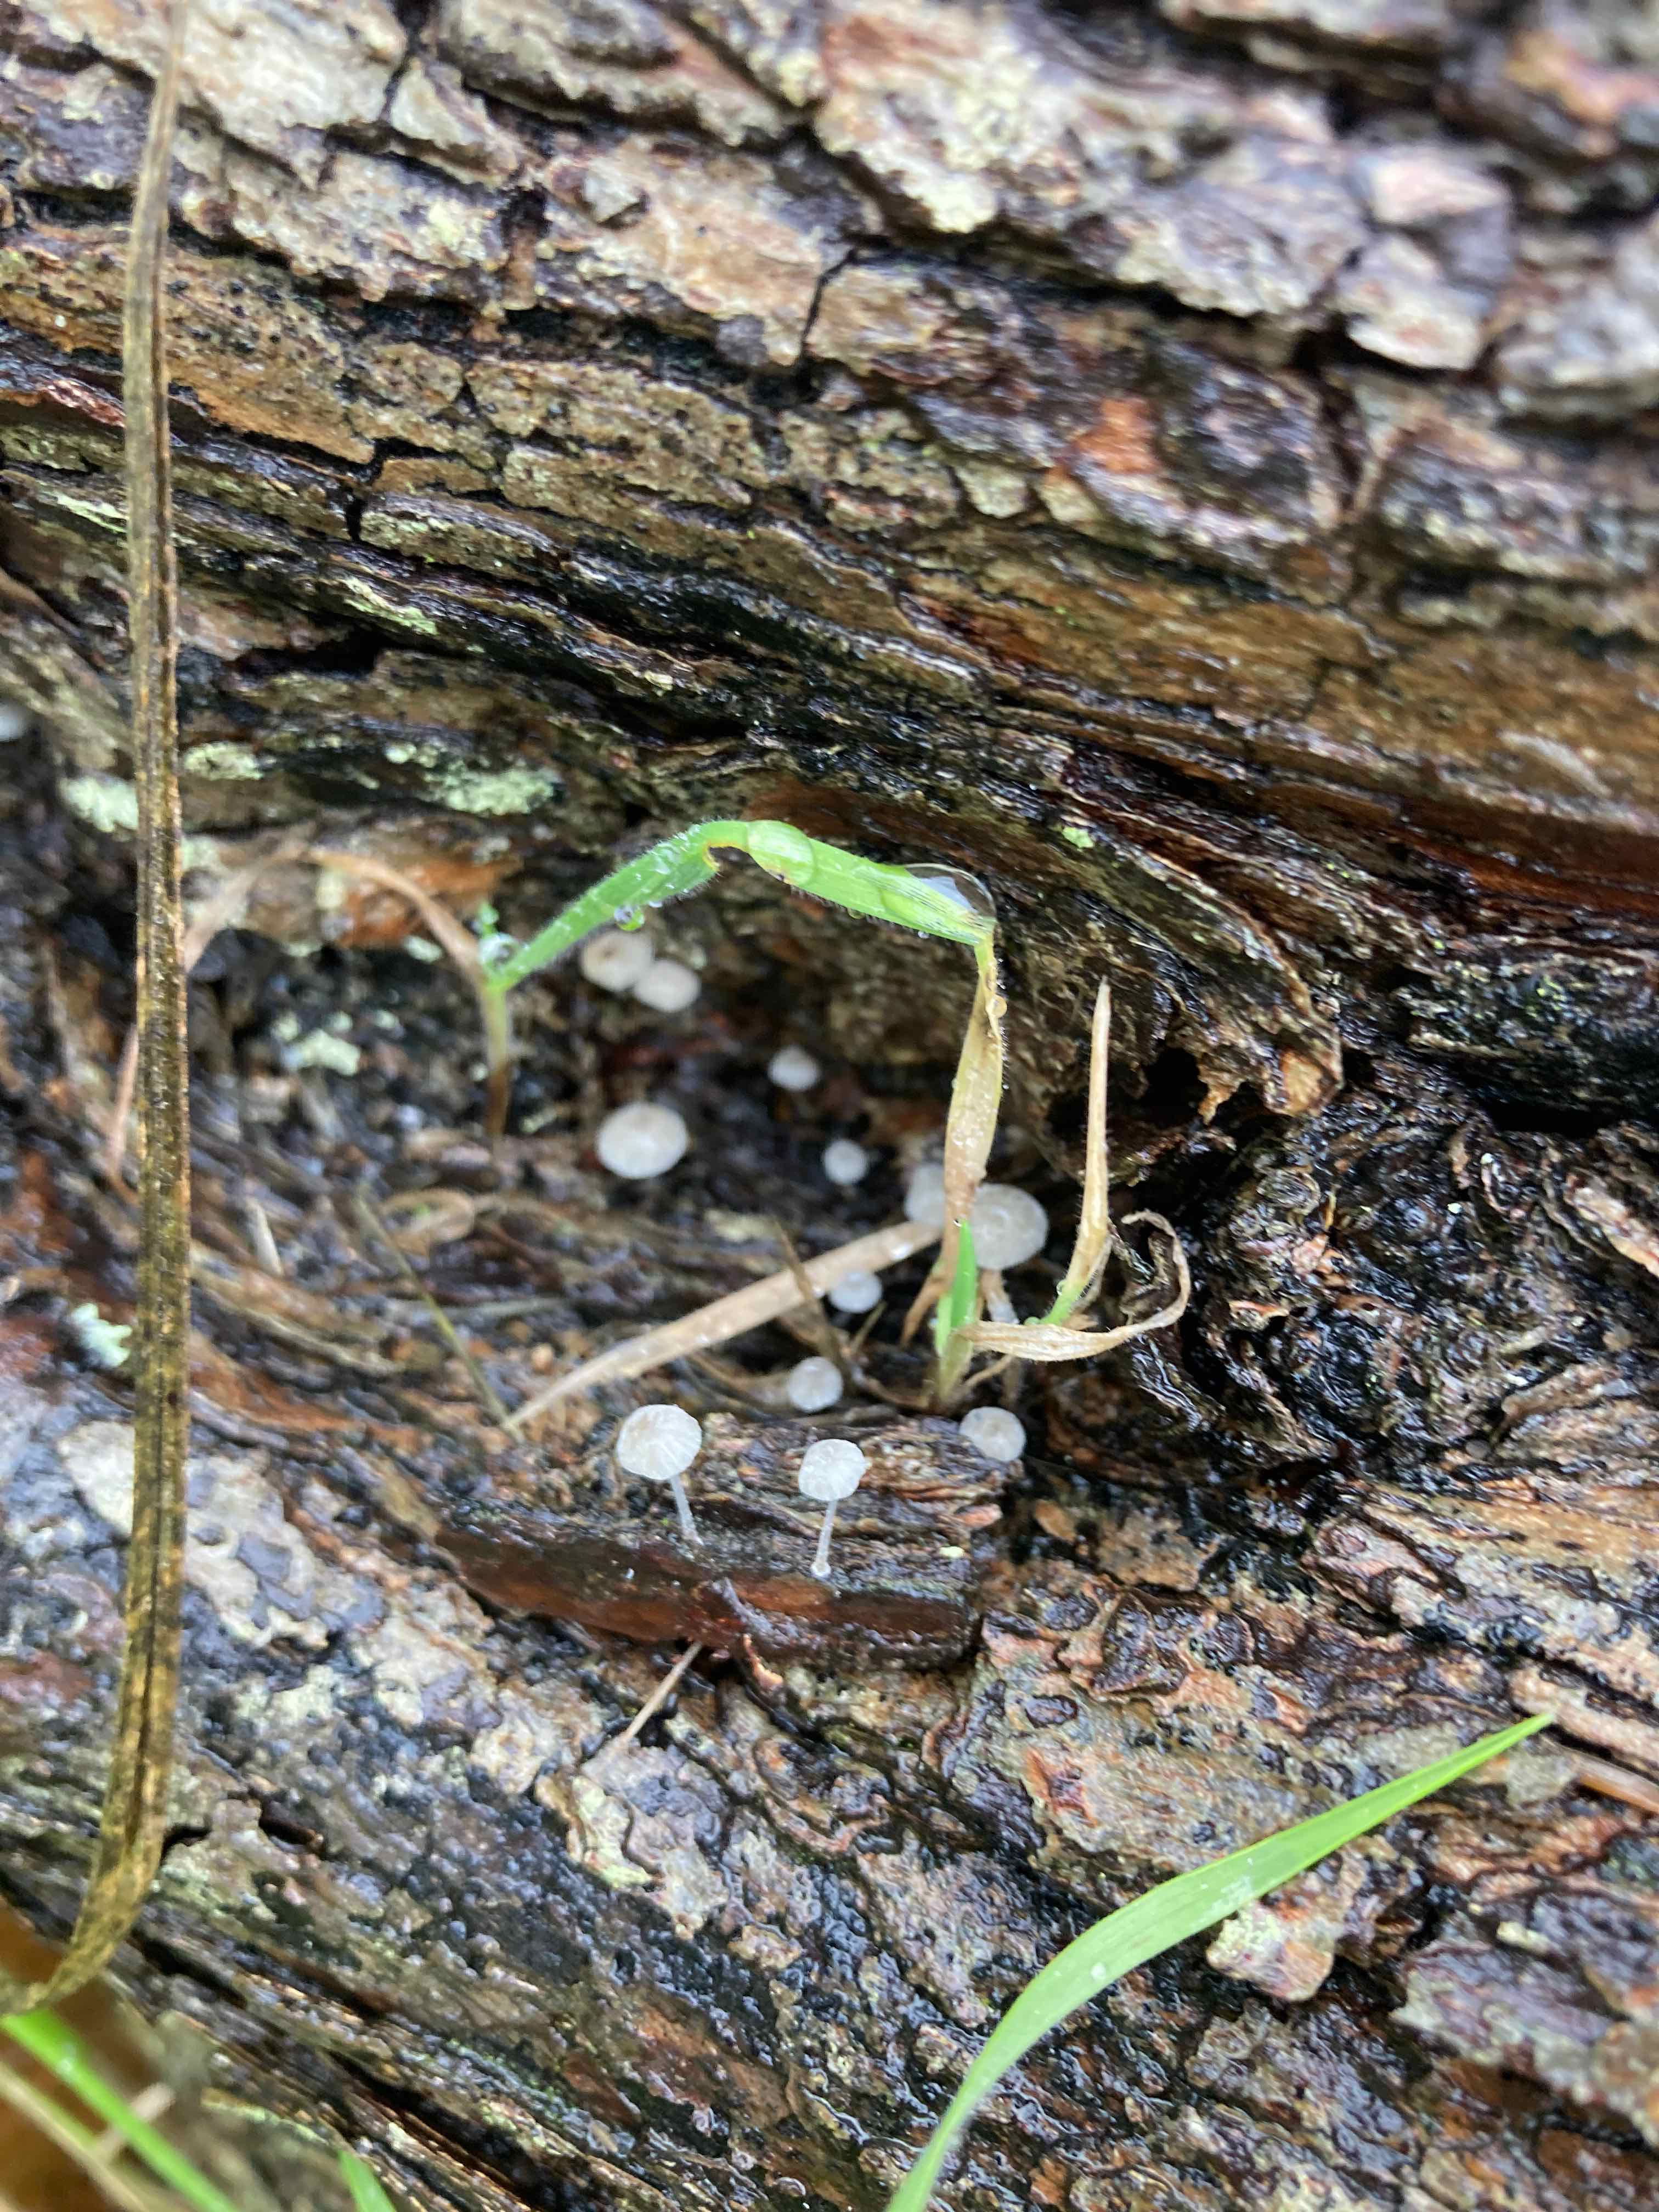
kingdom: Fungi
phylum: Basidiomycota
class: Agaricomycetes
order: Agaricales
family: Mycenaceae
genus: Mycena
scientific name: Mycena tenerrima
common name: pudret huesvamp
